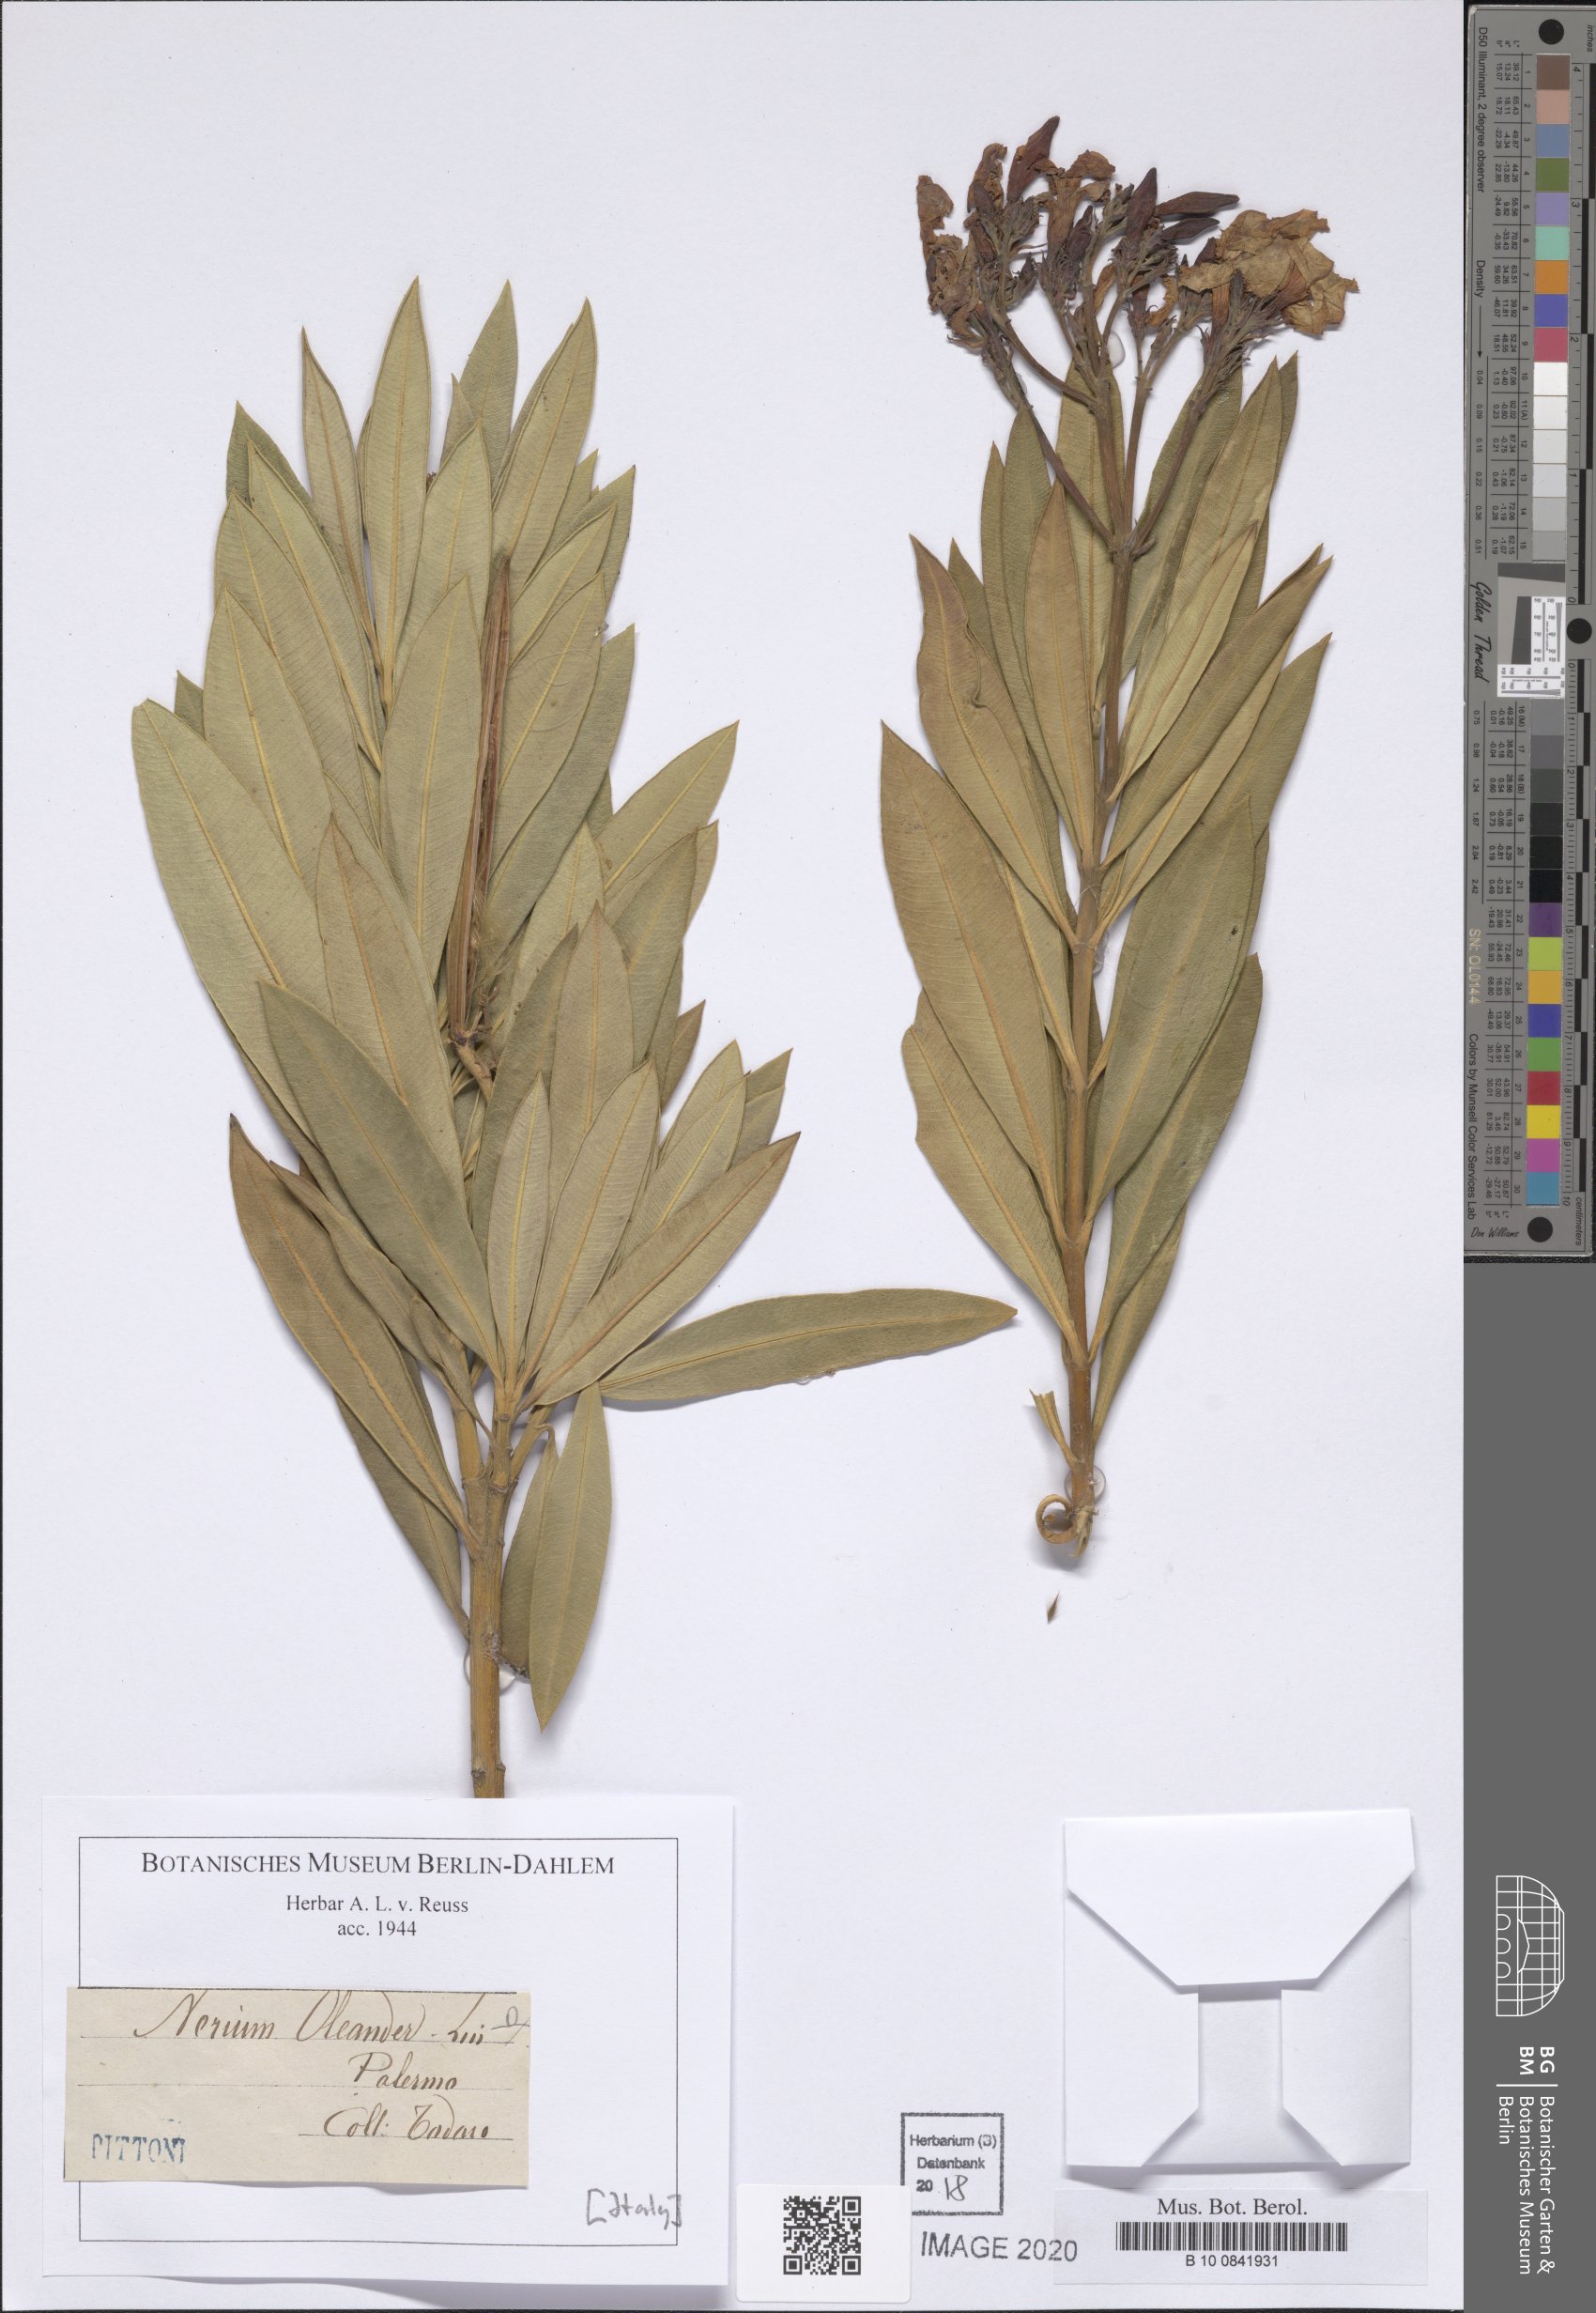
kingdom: Plantae
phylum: Tracheophyta
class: Magnoliopsida
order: Gentianales
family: Apocynaceae
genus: Nerium
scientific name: Nerium oleander
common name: Oleander
